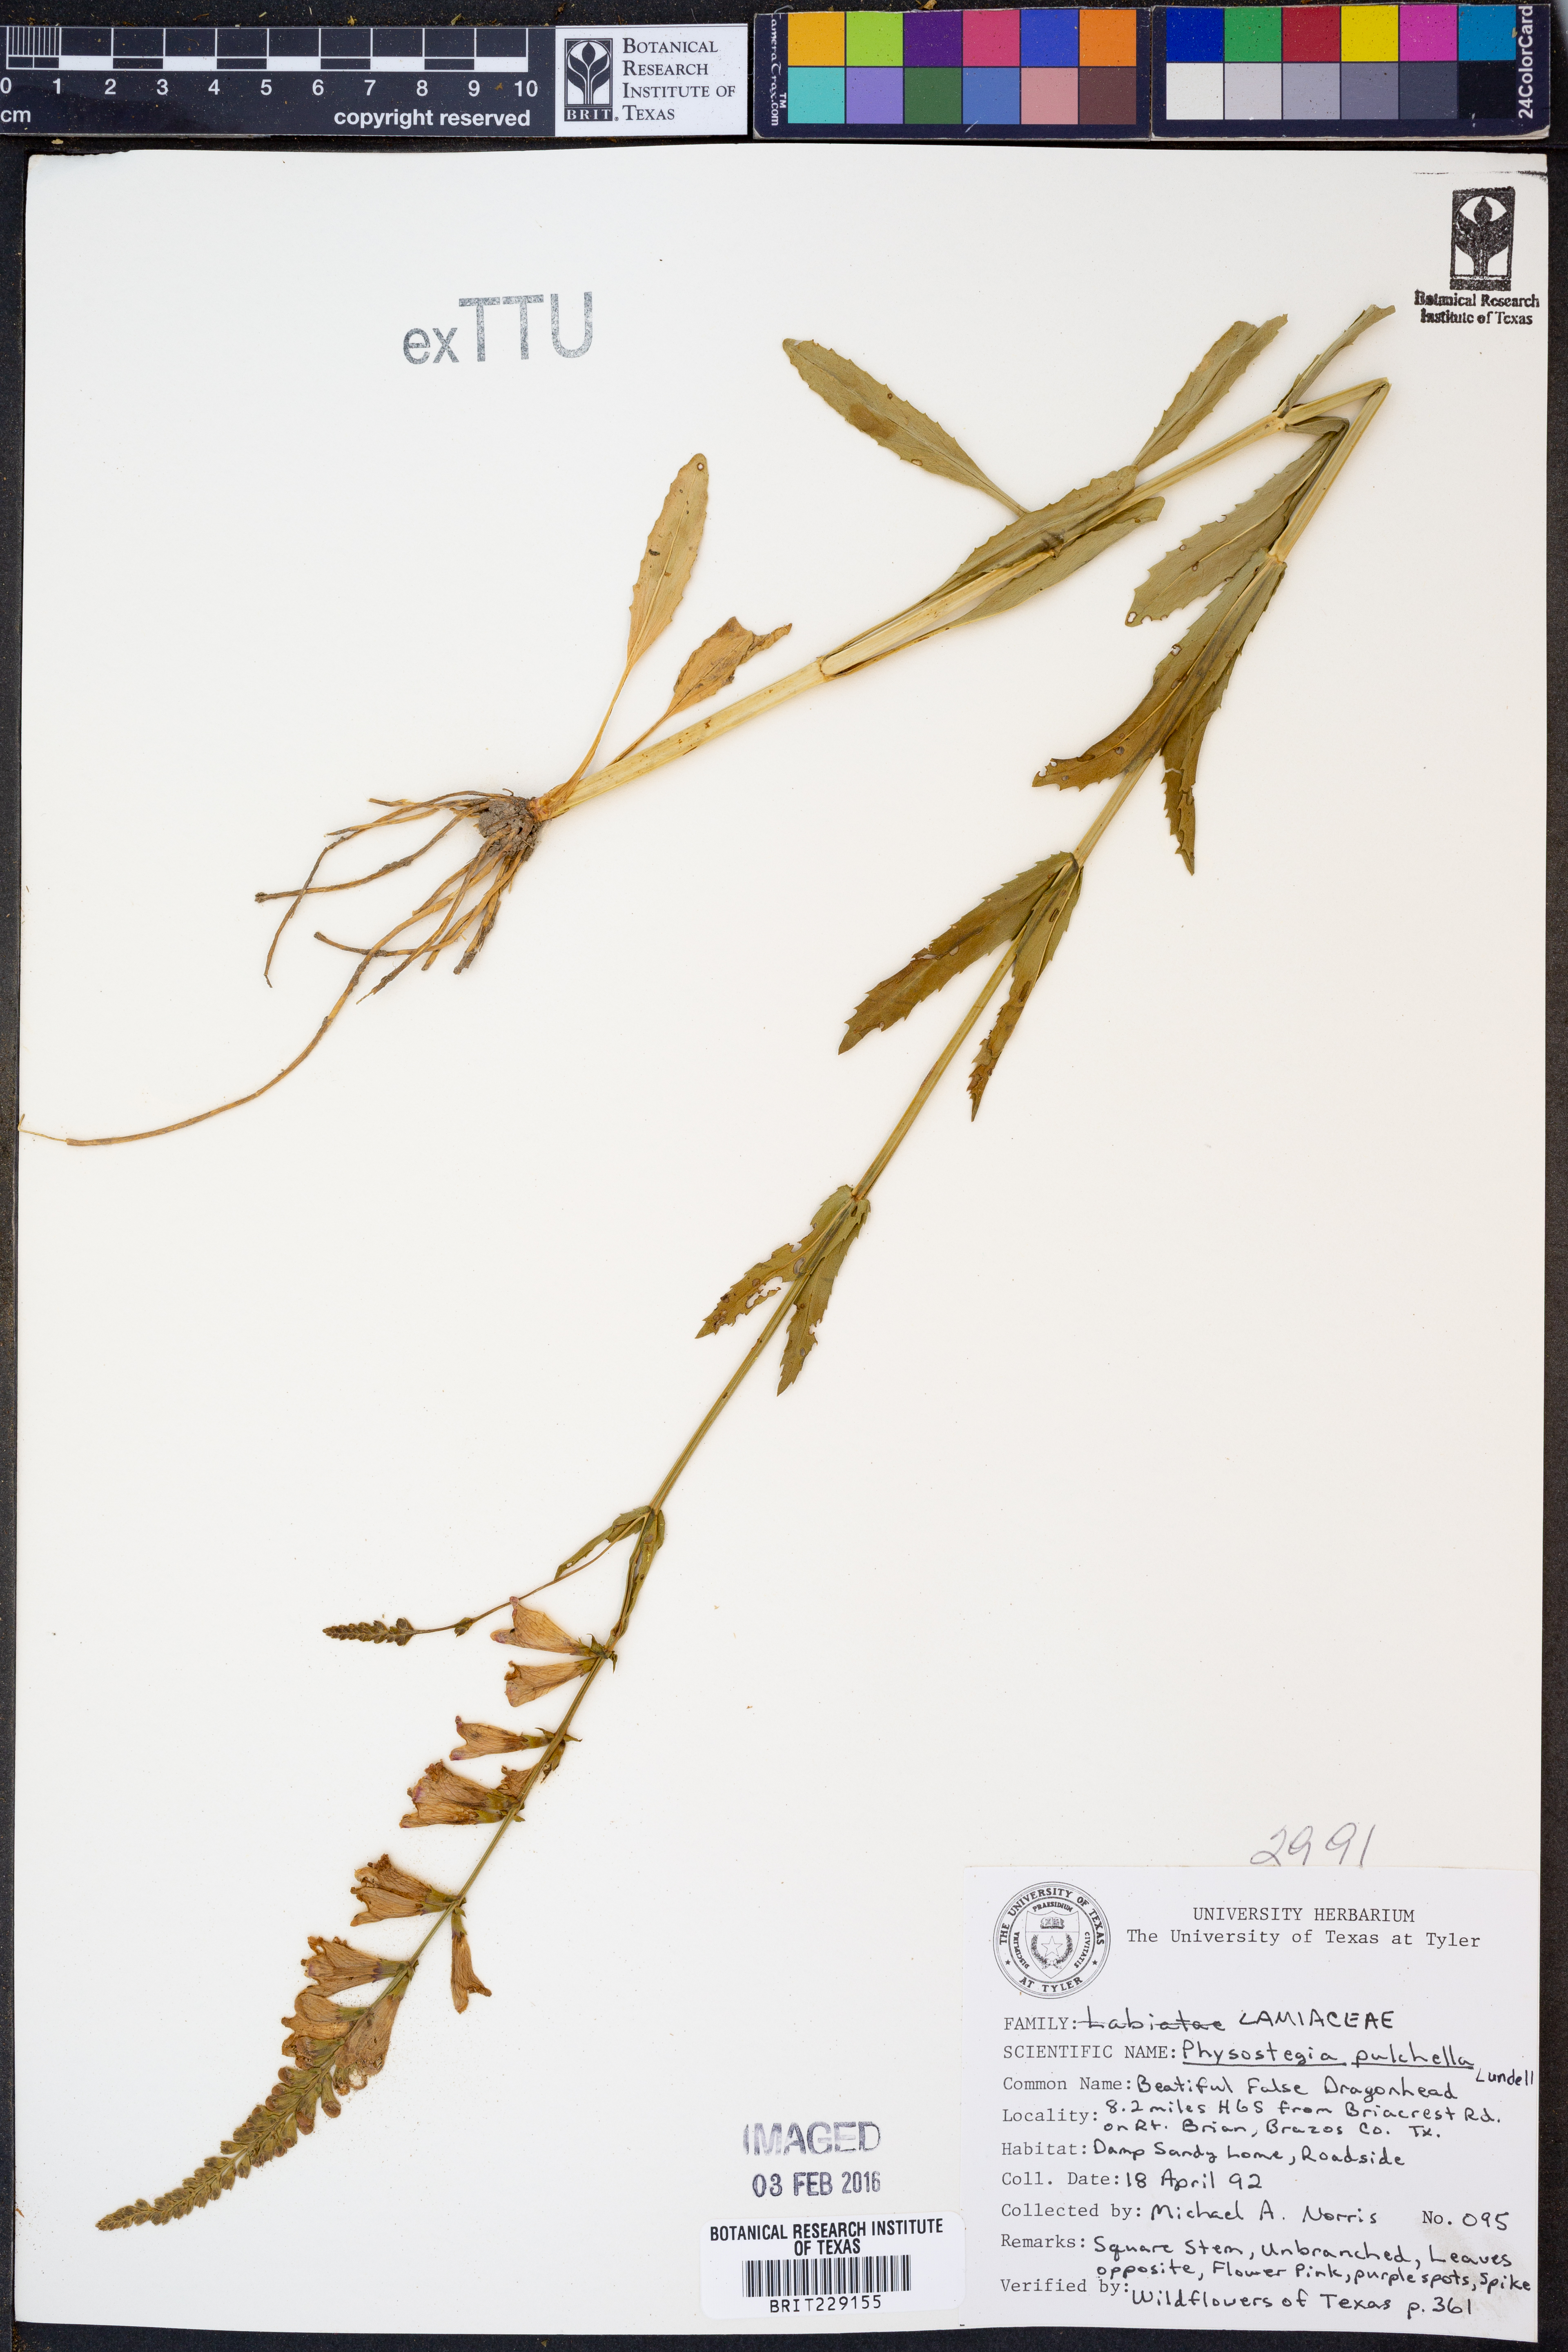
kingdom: Plantae
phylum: Tracheophyta
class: Magnoliopsida
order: Lamiales
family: Lamiaceae
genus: Physostegia
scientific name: Physostegia pulchella
